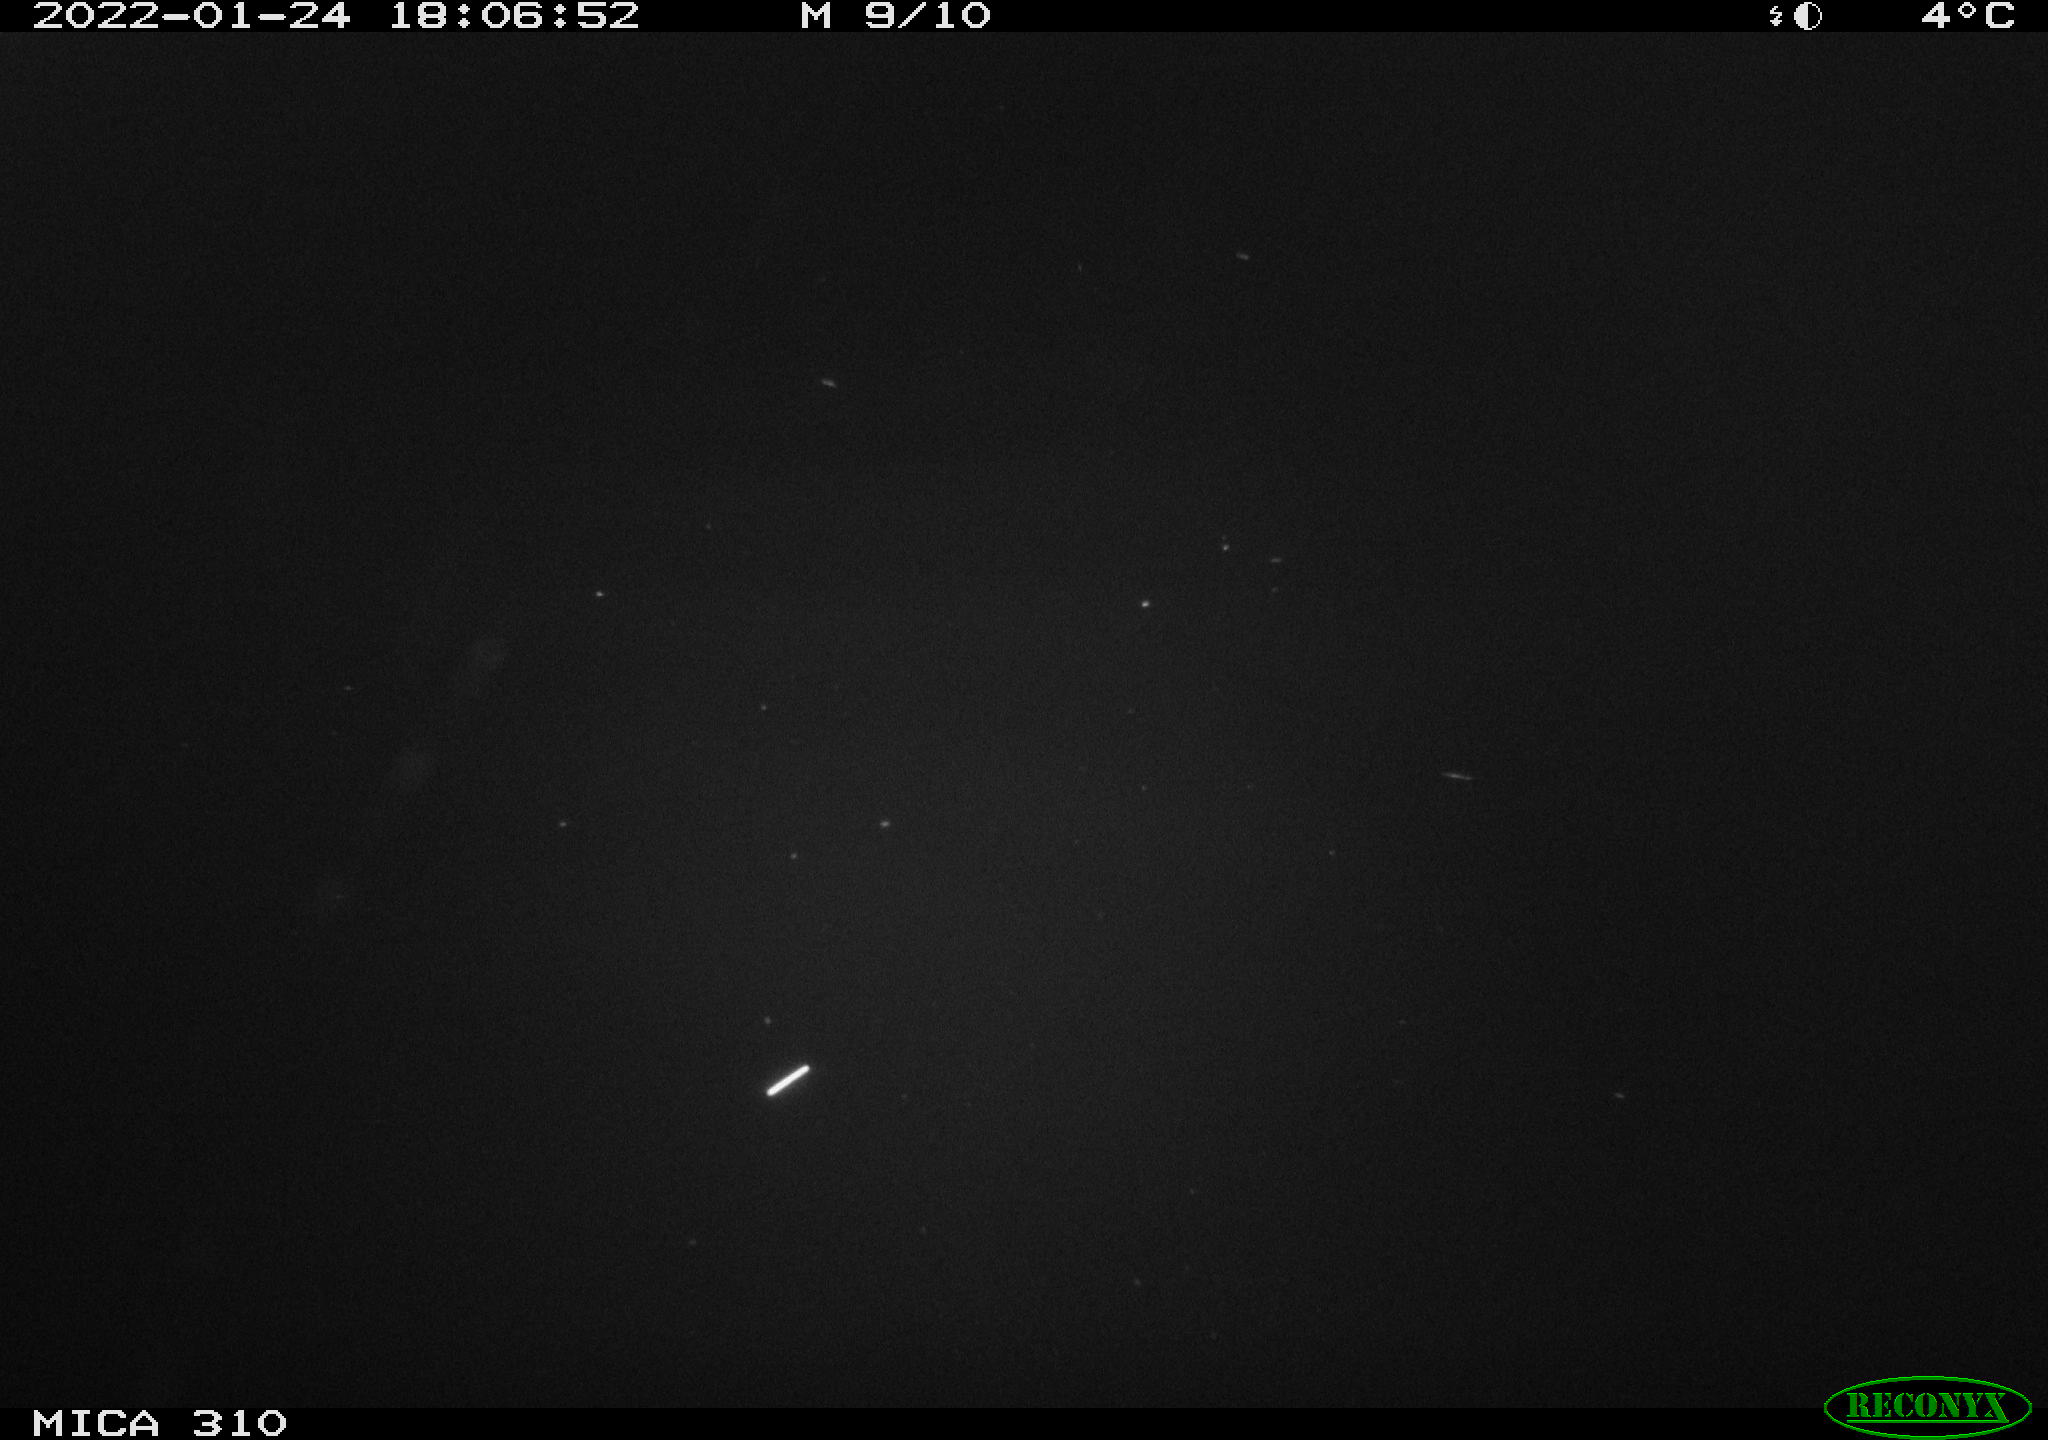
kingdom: Animalia
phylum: Chordata
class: Aves
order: Anseriformes
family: Anatidae
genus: Anas
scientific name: Anas
